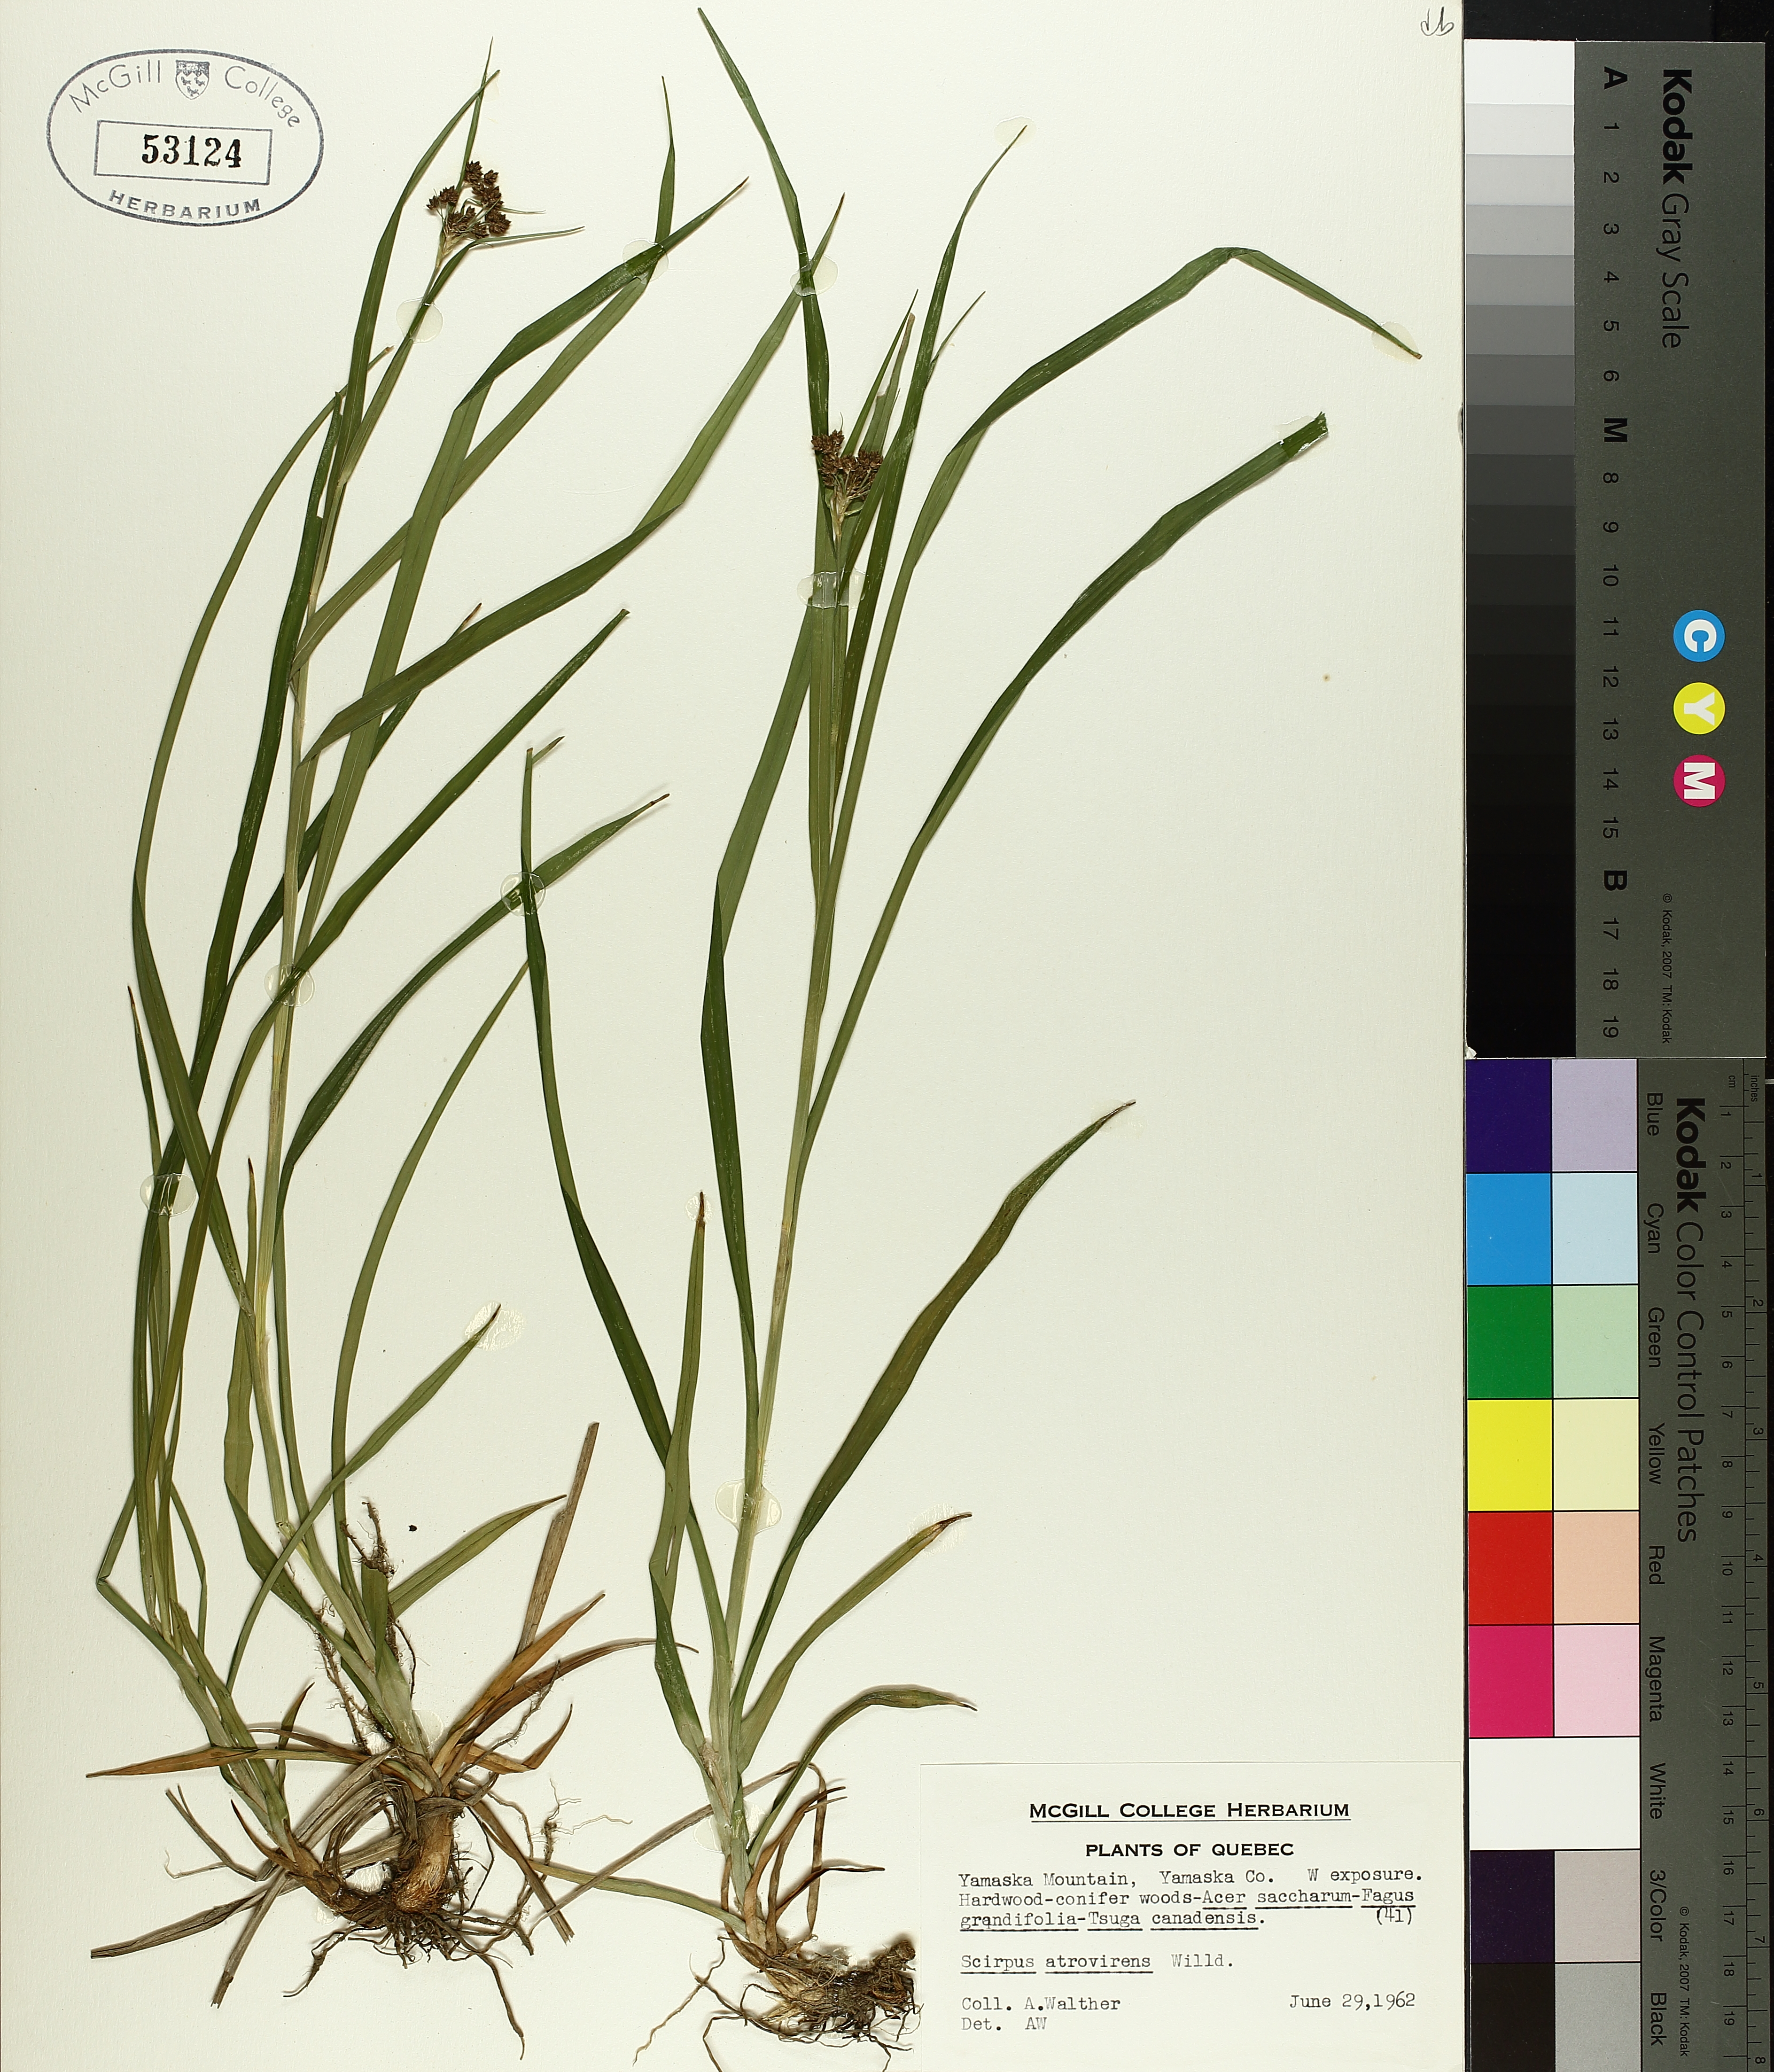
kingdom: Plantae
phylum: Tracheophyta
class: Liliopsida
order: Poales
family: Cyperaceae
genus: Scirpus
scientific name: Scirpus atrovirens
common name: Black bulrush
